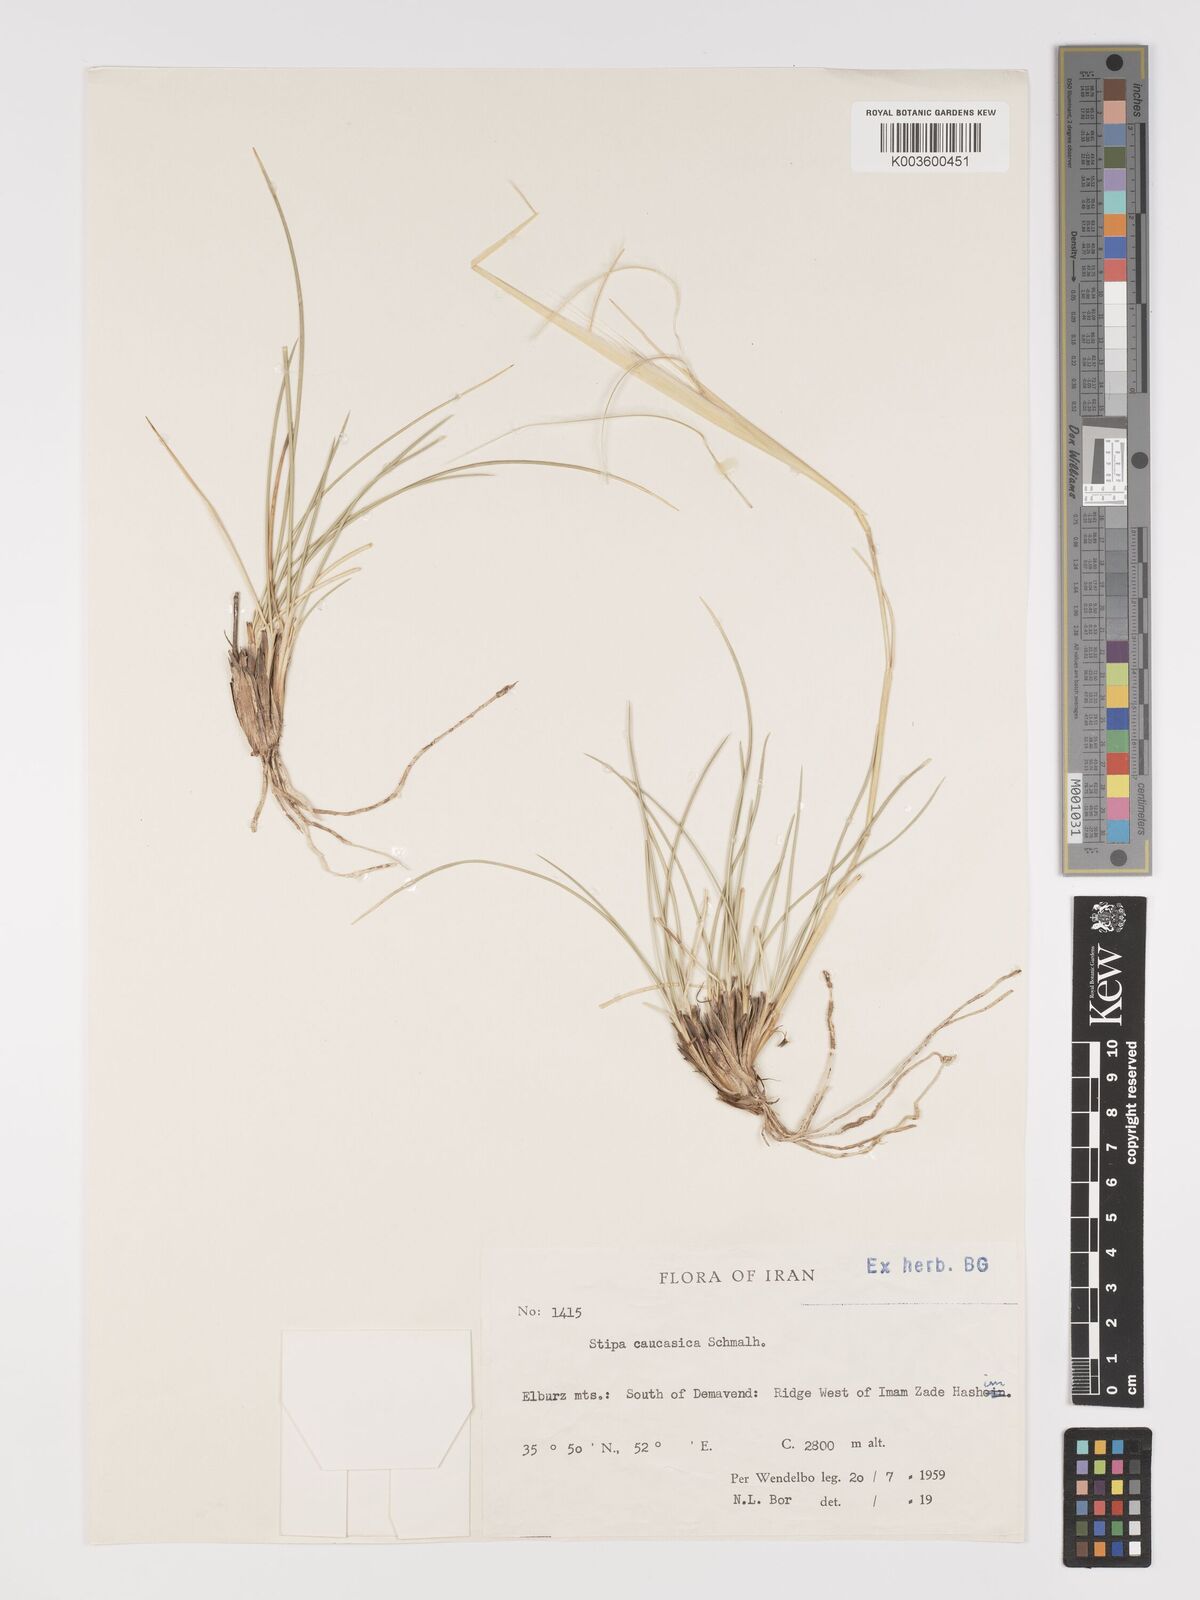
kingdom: Plantae
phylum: Tracheophyta
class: Liliopsida
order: Poales
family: Poaceae
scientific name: Poaceae
